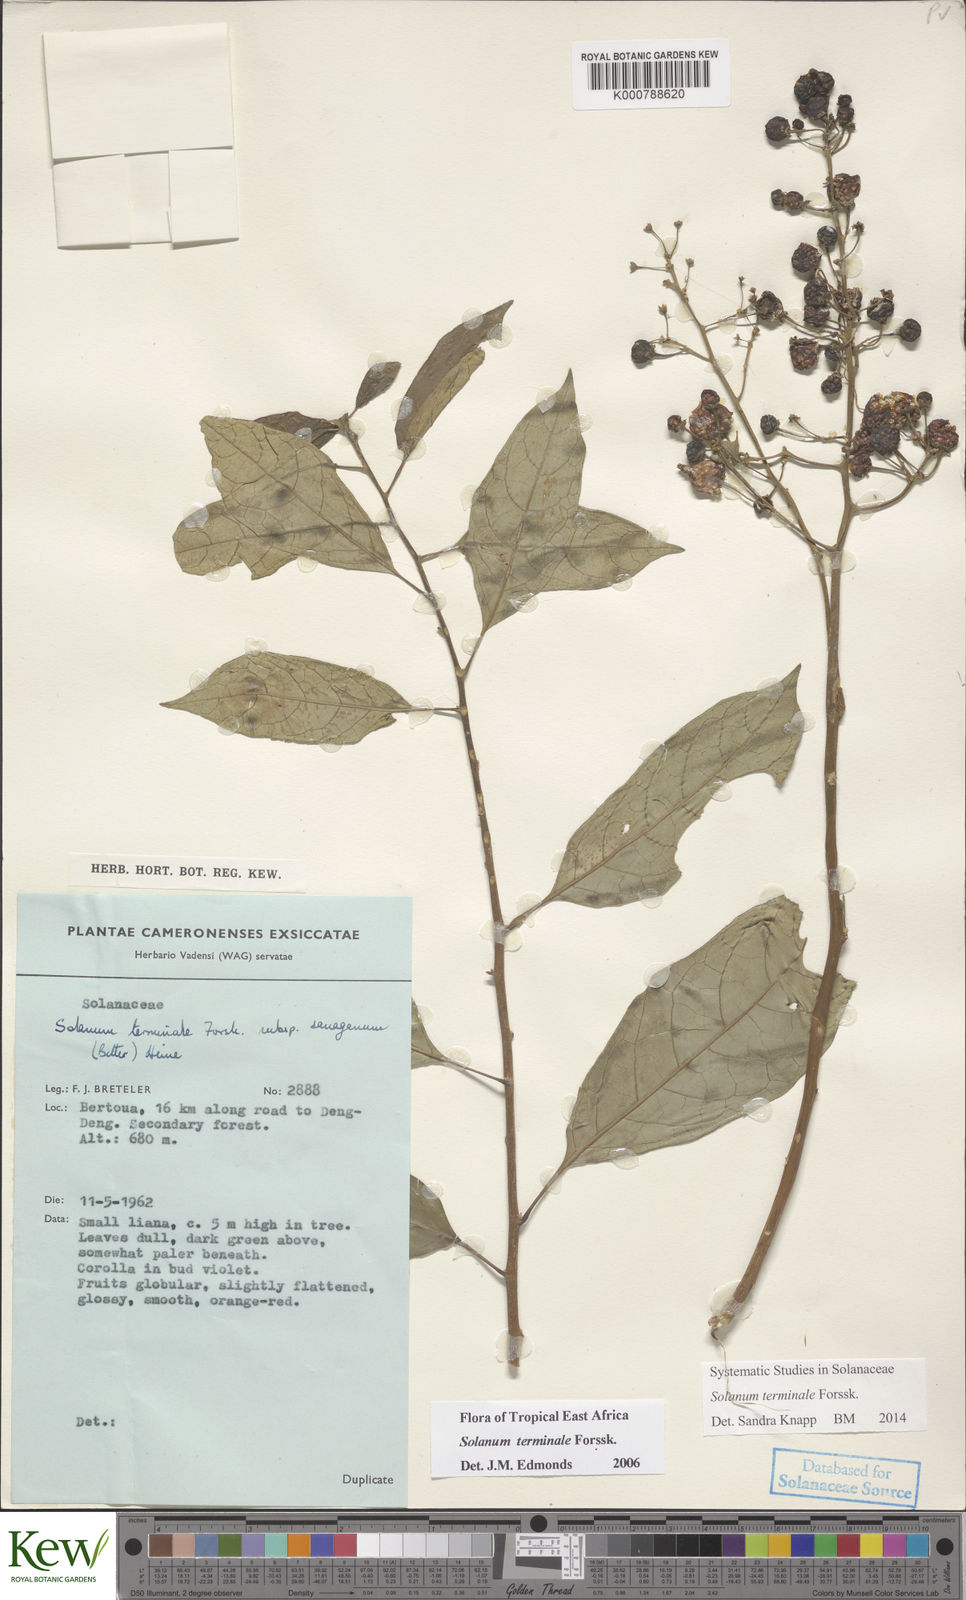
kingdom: Plantae
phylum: Tracheophyta
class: Magnoliopsida
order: Solanales
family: Solanaceae
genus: Solanum
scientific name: Solanum terminale
